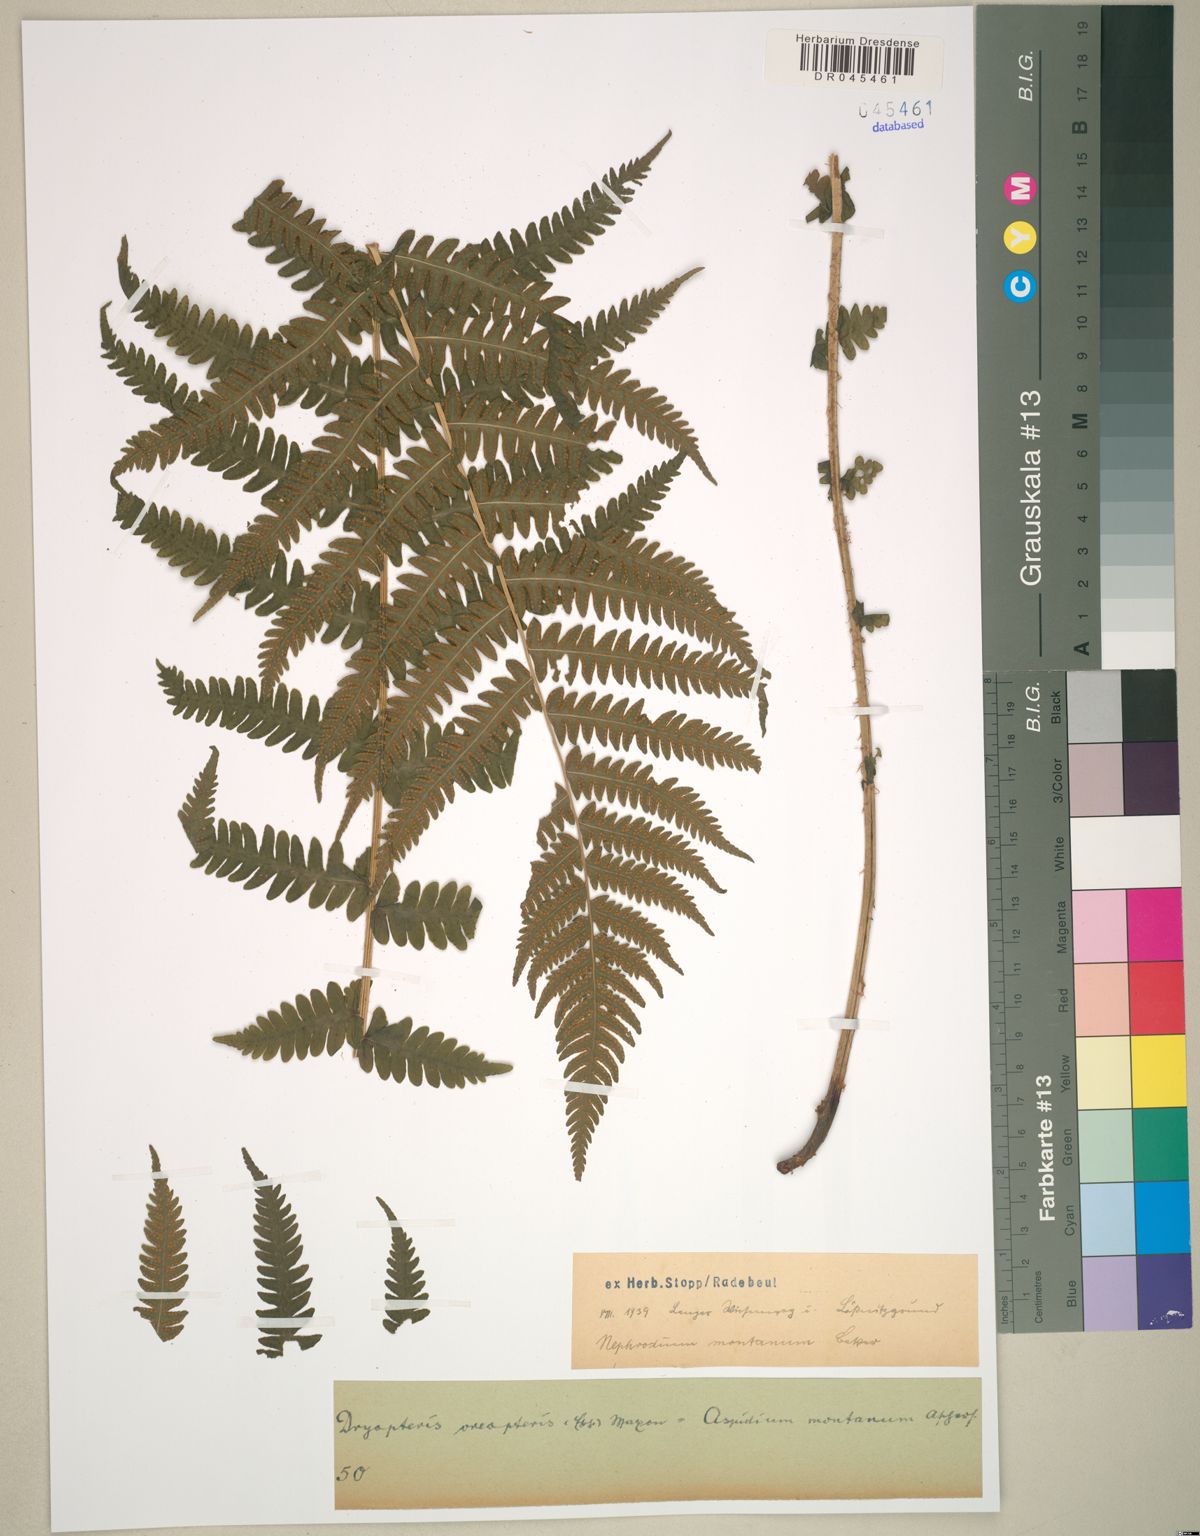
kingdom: Plantae
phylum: Tracheophyta
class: Polypodiopsida
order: Polypodiales
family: Thelypteridaceae
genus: Oreopteris
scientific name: Oreopteris limbosperma
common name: Lemon-scented fern
